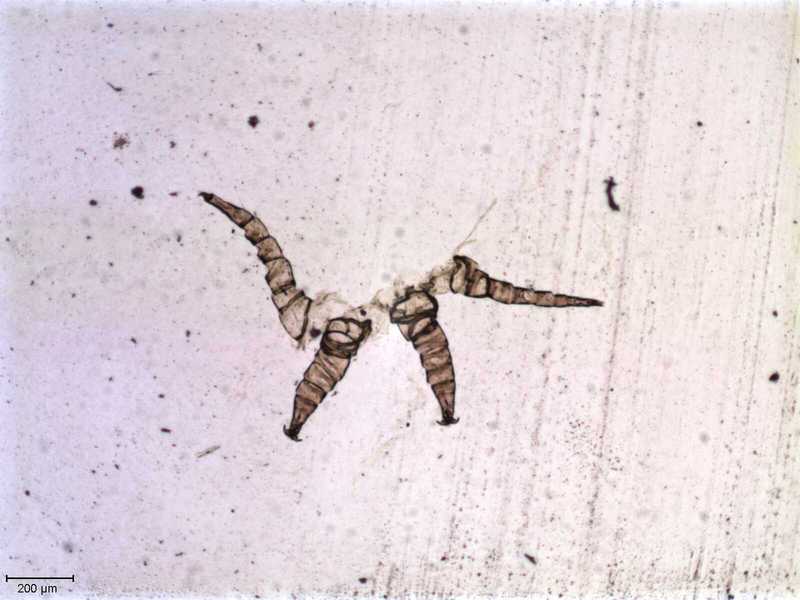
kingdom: Animalia
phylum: Arthropoda
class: Arachnida
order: Mesostigmata
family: Halarachnidae
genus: Orthohalarachne
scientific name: Orthohalarachne letalis
